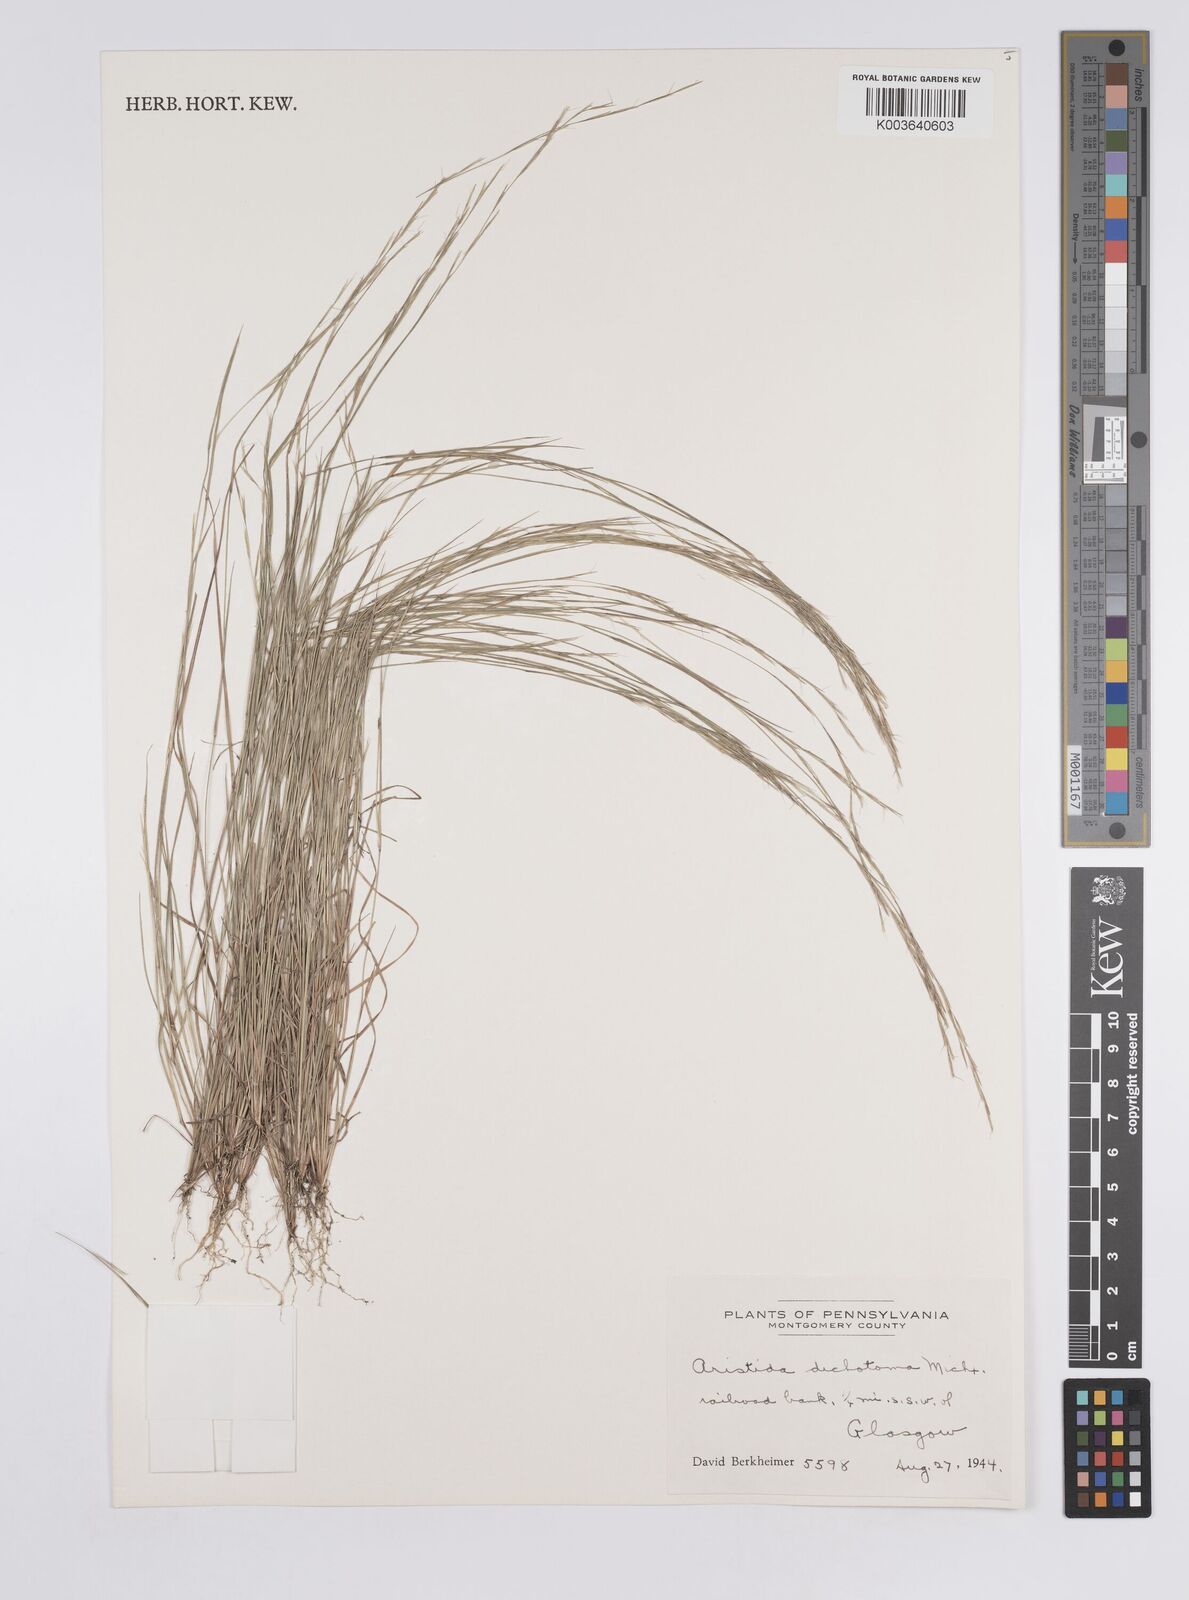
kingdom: Plantae
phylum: Tracheophyta
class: Liliopsida
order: Poales
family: Poaceae
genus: Aristida
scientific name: Aristida dichotoma
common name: Churchmouse three-awn
